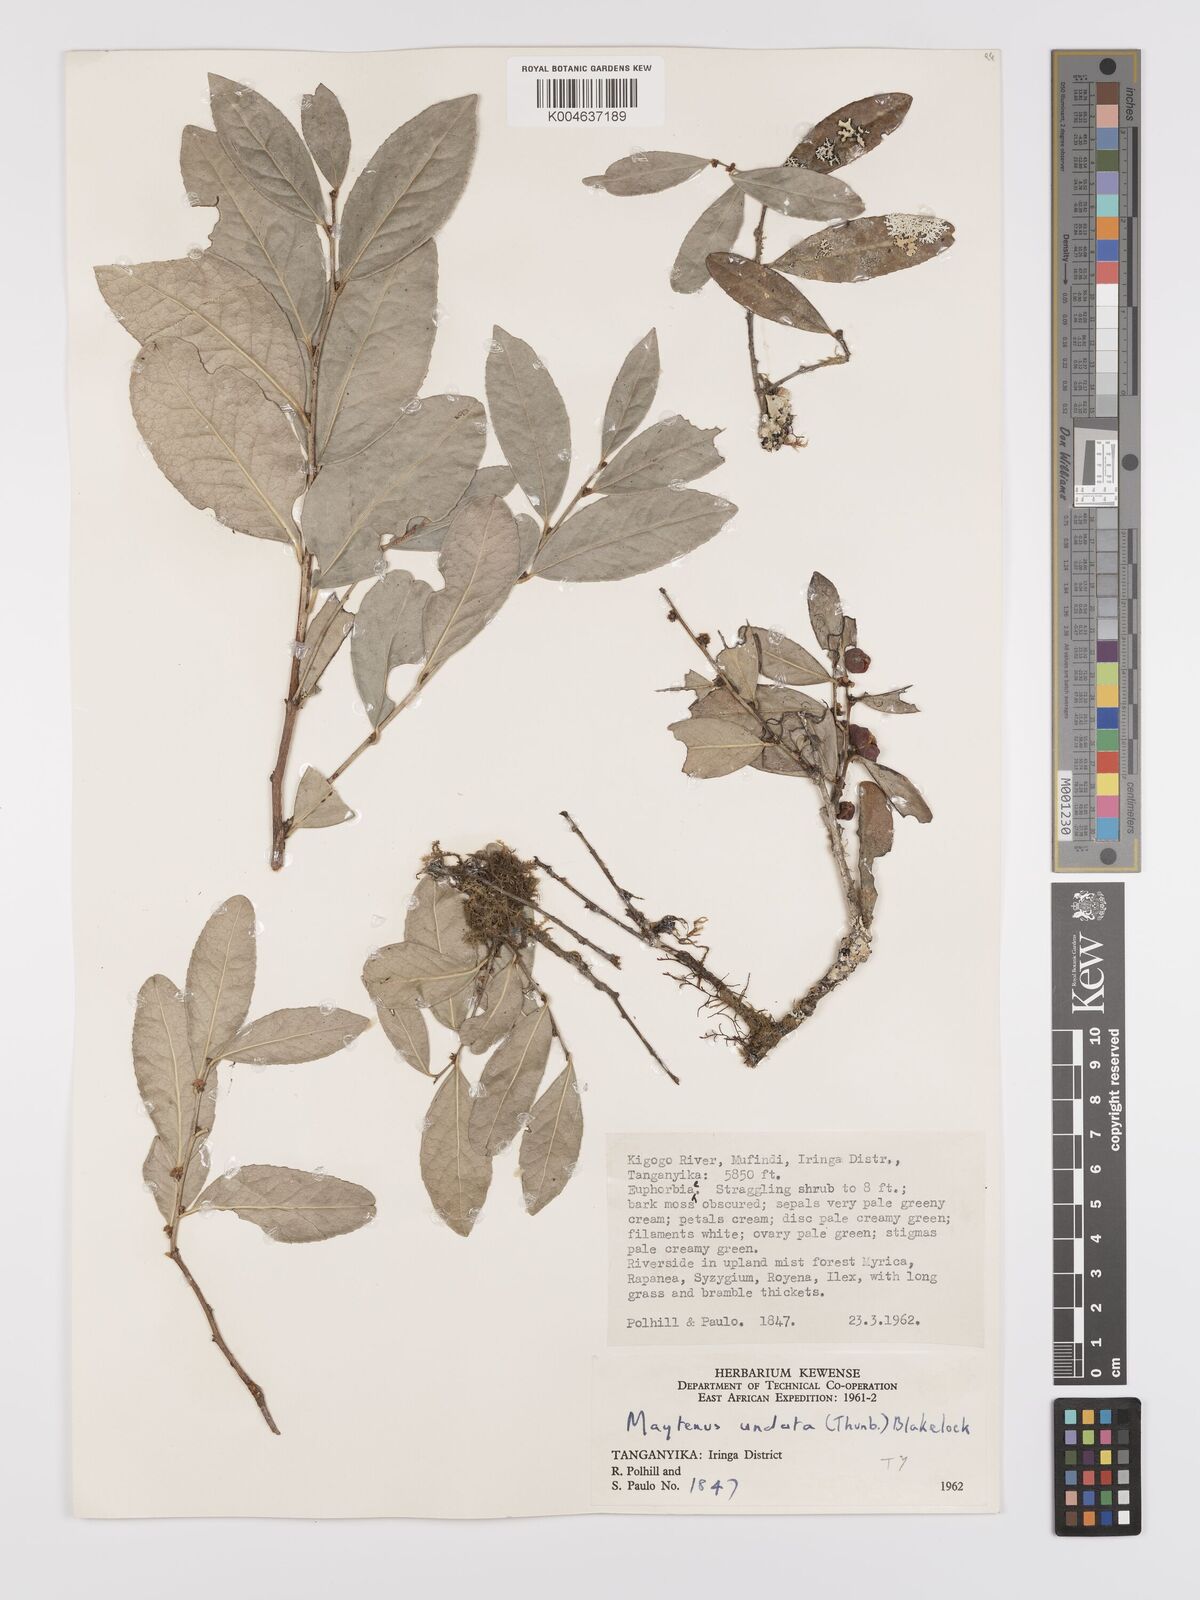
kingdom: Plantae
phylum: Tracheophyta
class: Magnoliopsida
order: Celastrales
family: Celastraceae
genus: Gymnosporia
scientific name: Gymnosporia undata
